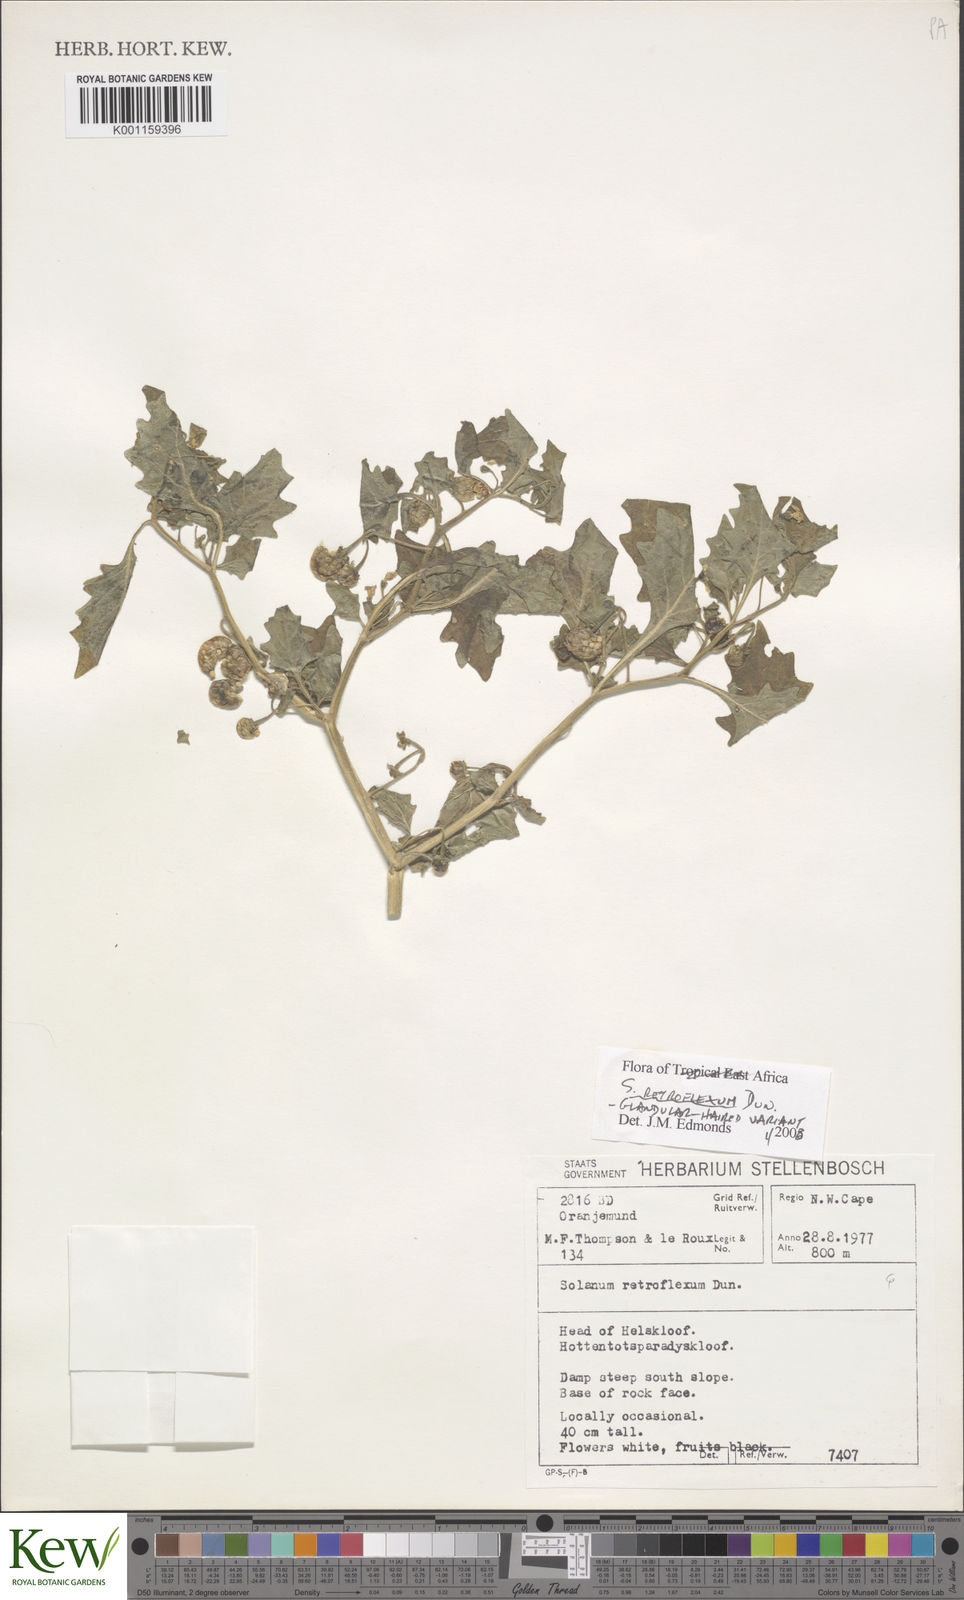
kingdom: Plantae
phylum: Tracheophyta
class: Magnoliopsida
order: Solanales
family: Solanaceae
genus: Solanum
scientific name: Solanum retroflexum
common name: Wonderberry
